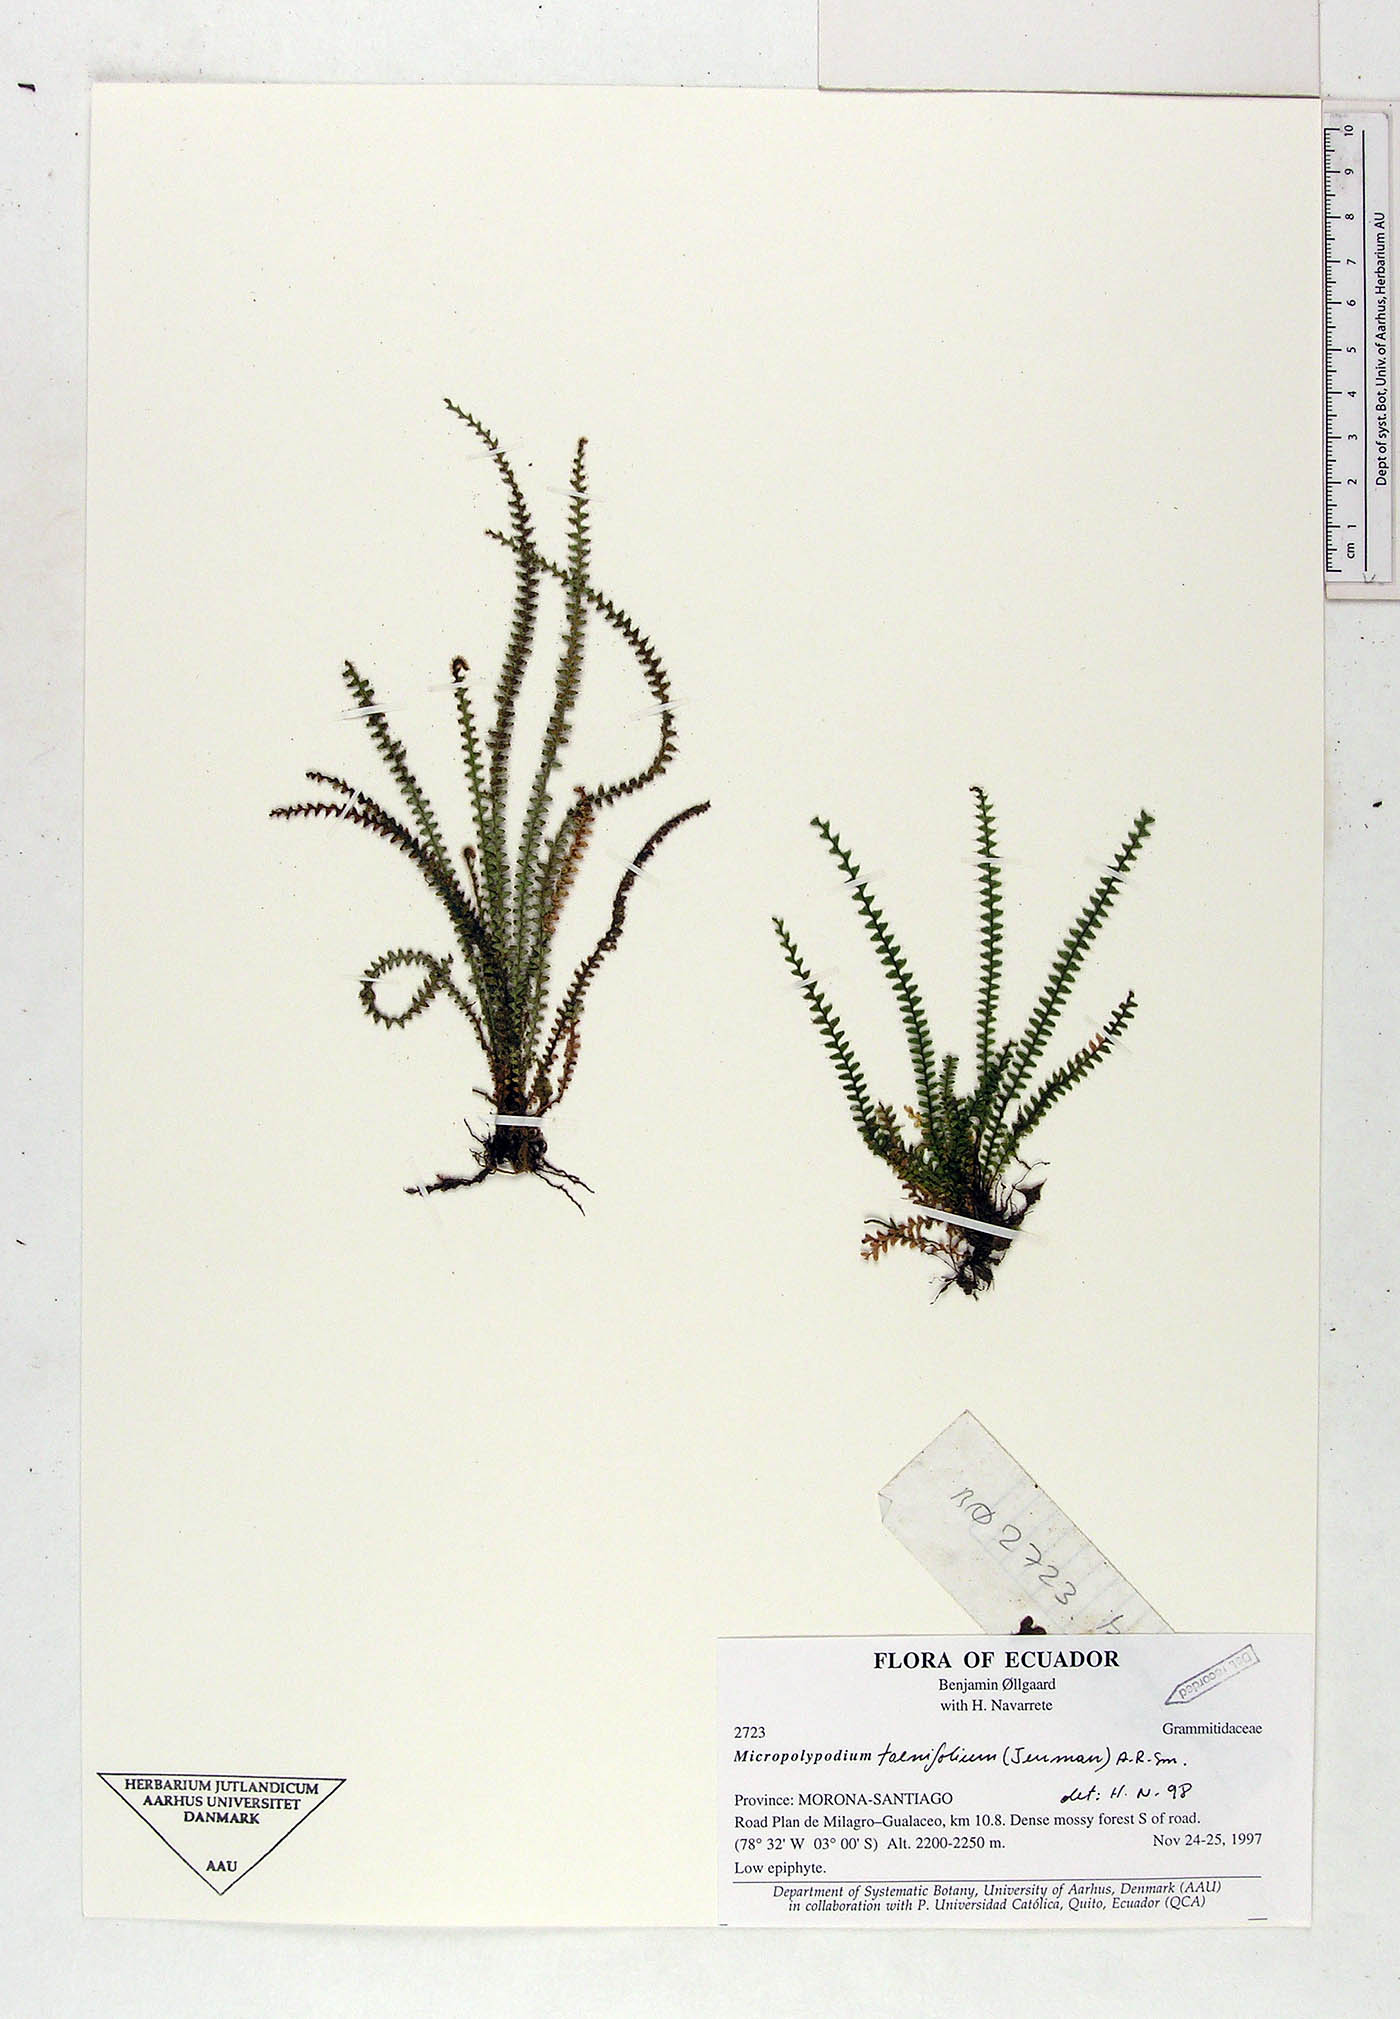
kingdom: Plantae
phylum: Tracheophyta
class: Polypodiopsida
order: Polypodiales
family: Polypodiaceae
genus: Moranopteris
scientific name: Moranopteris taenifolia
